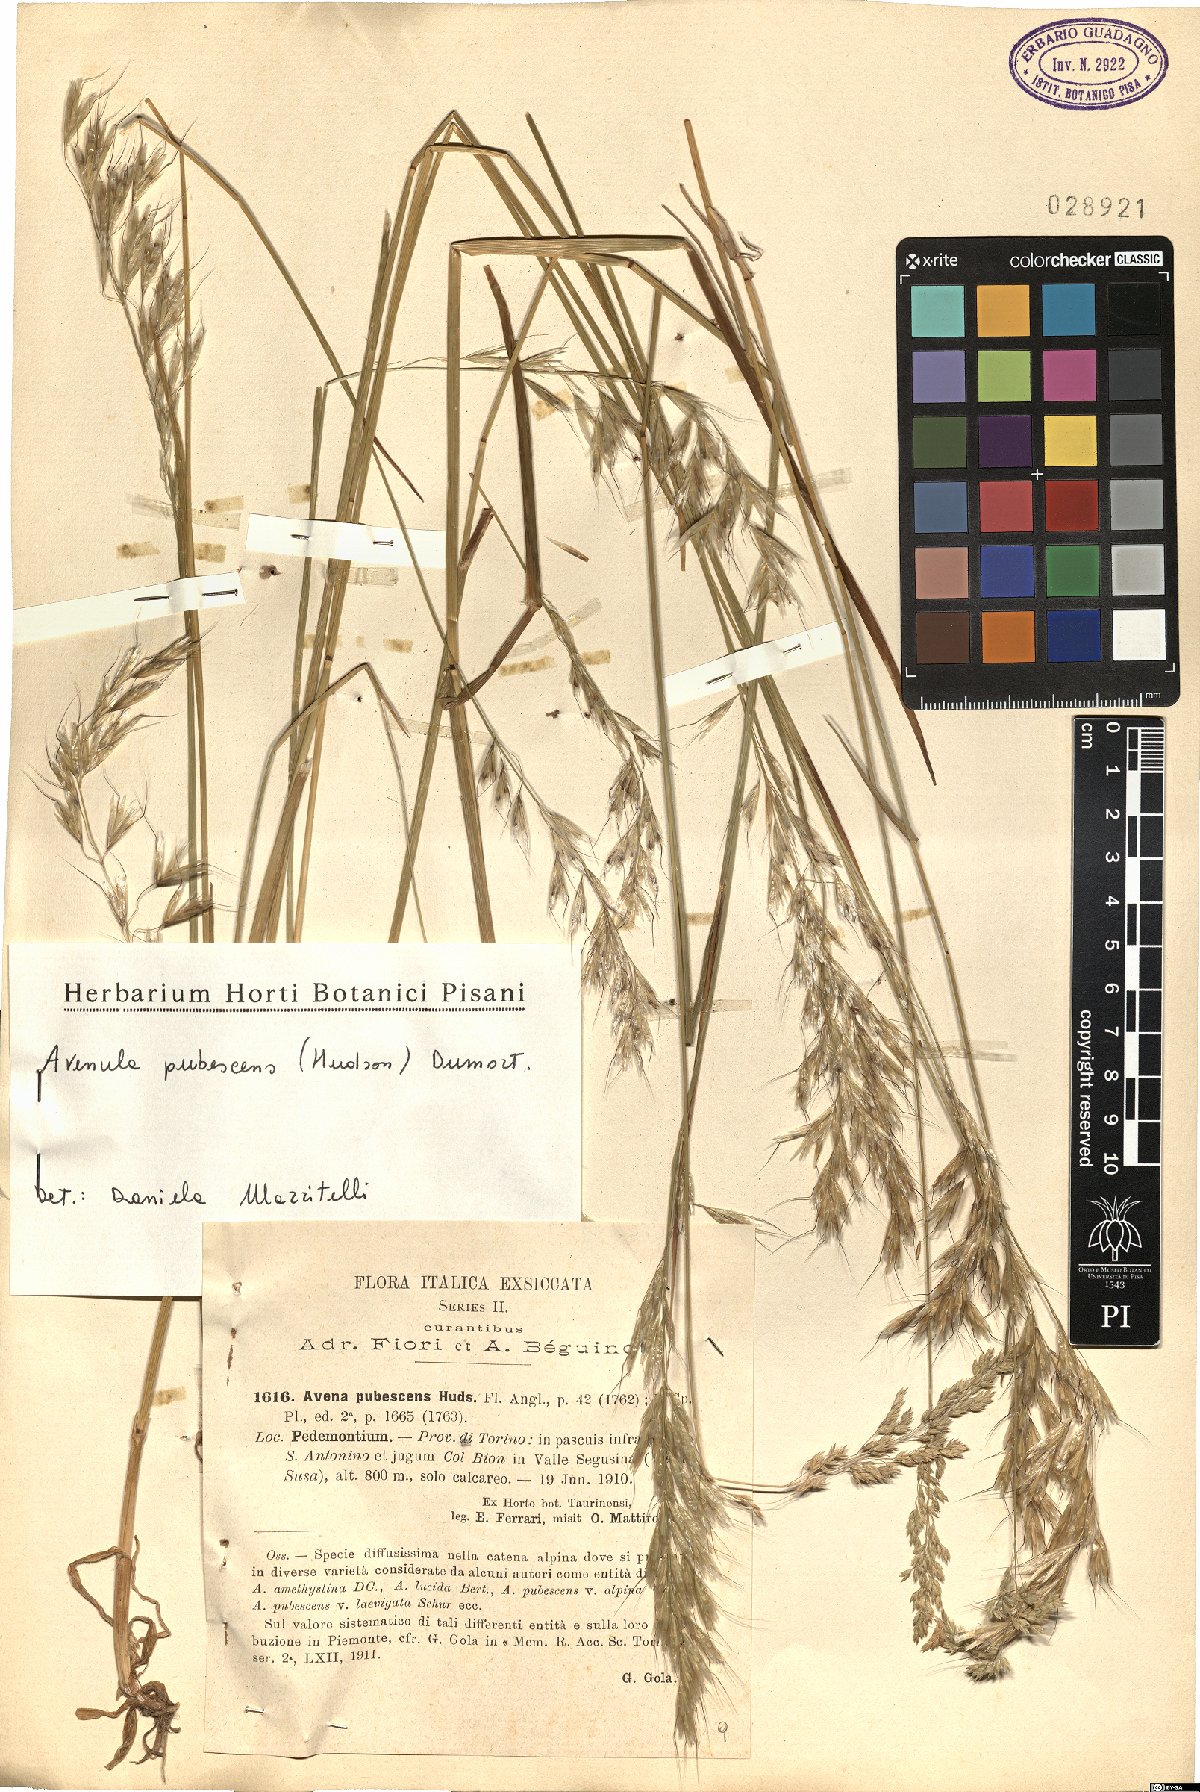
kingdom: Plantae
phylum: Tracheophyta
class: Liliopsida
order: Poales
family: Poaceae
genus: Avenula
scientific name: Avenula pubescens
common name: Downy alpine oatgrass
